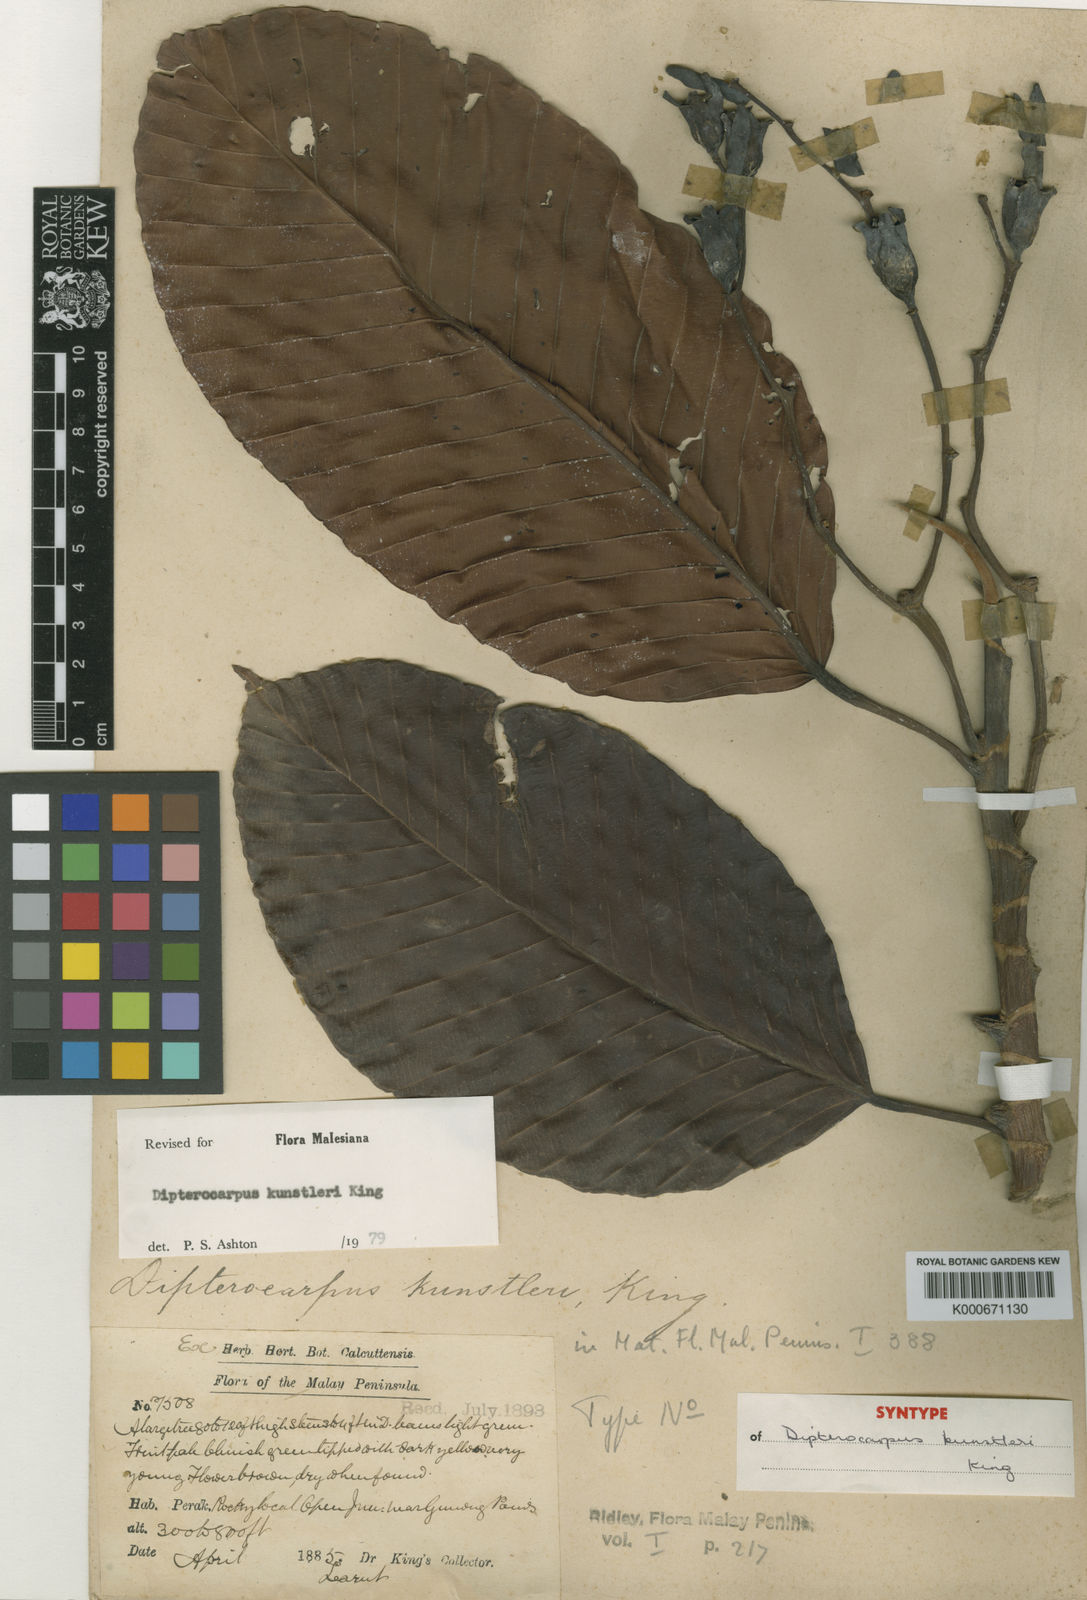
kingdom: Plantae
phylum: Tracheophyta
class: Magnoliopsida
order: Malvales
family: Dipterocarpaceae
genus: Dipterocarpus
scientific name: Dipterocarpus kunstleri
